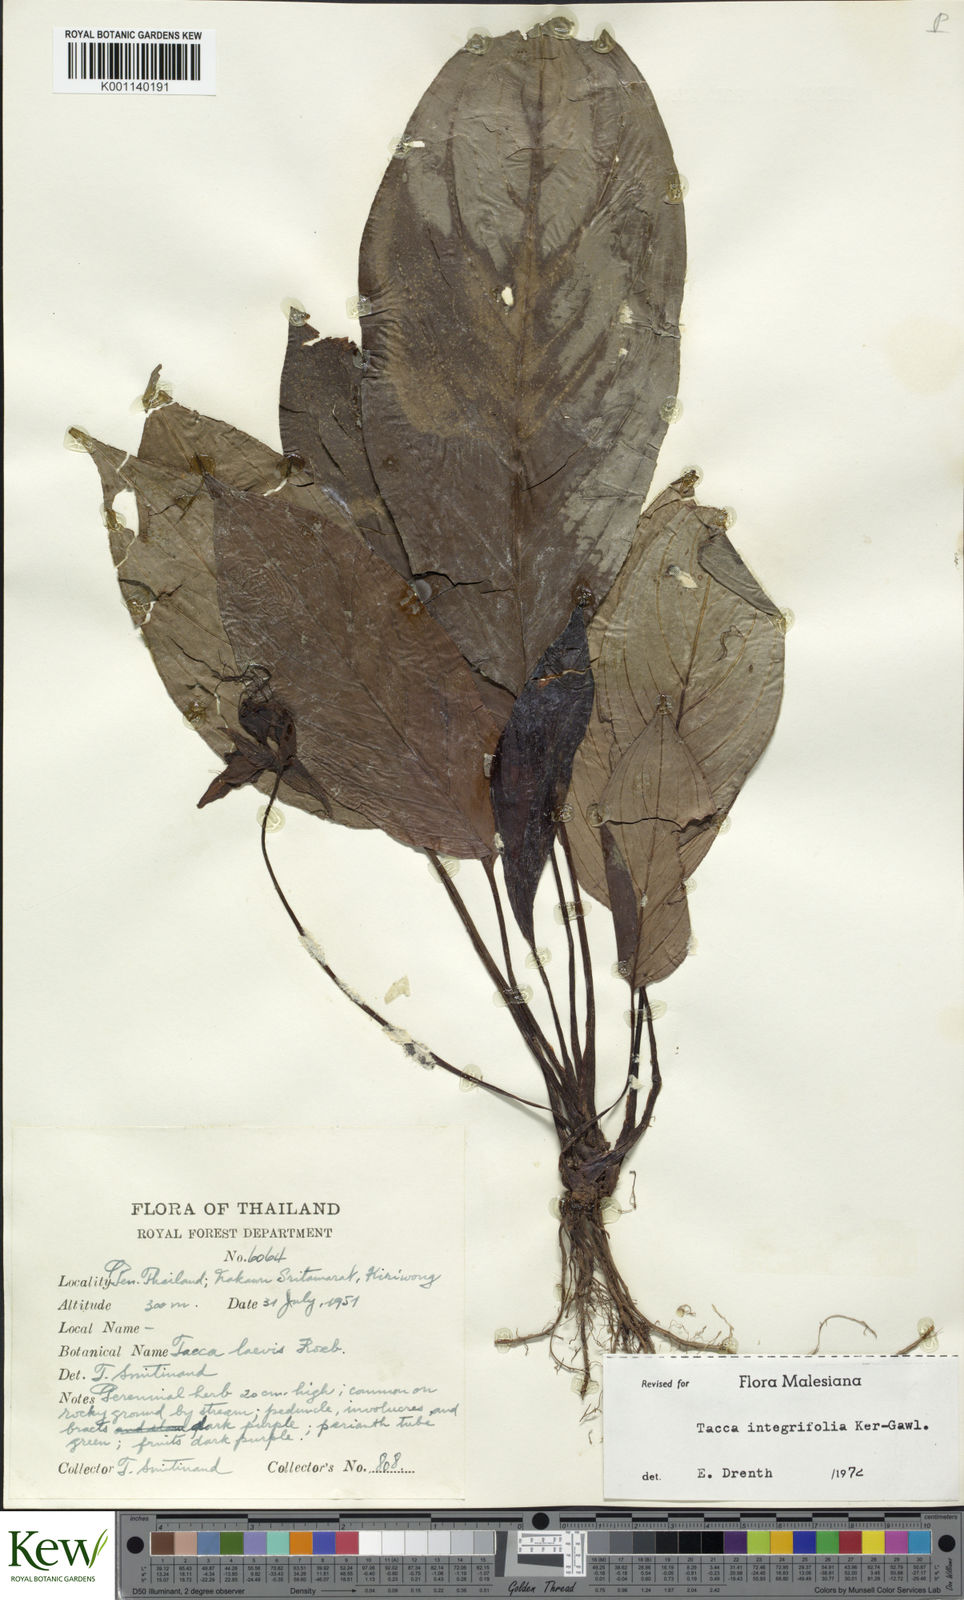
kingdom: Plantae
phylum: Tracheophyta
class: Liliopsida
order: Dioscoreales
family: Dioscoreaceae
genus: Tacca
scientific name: Tacca integrifolia
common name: Batplant
